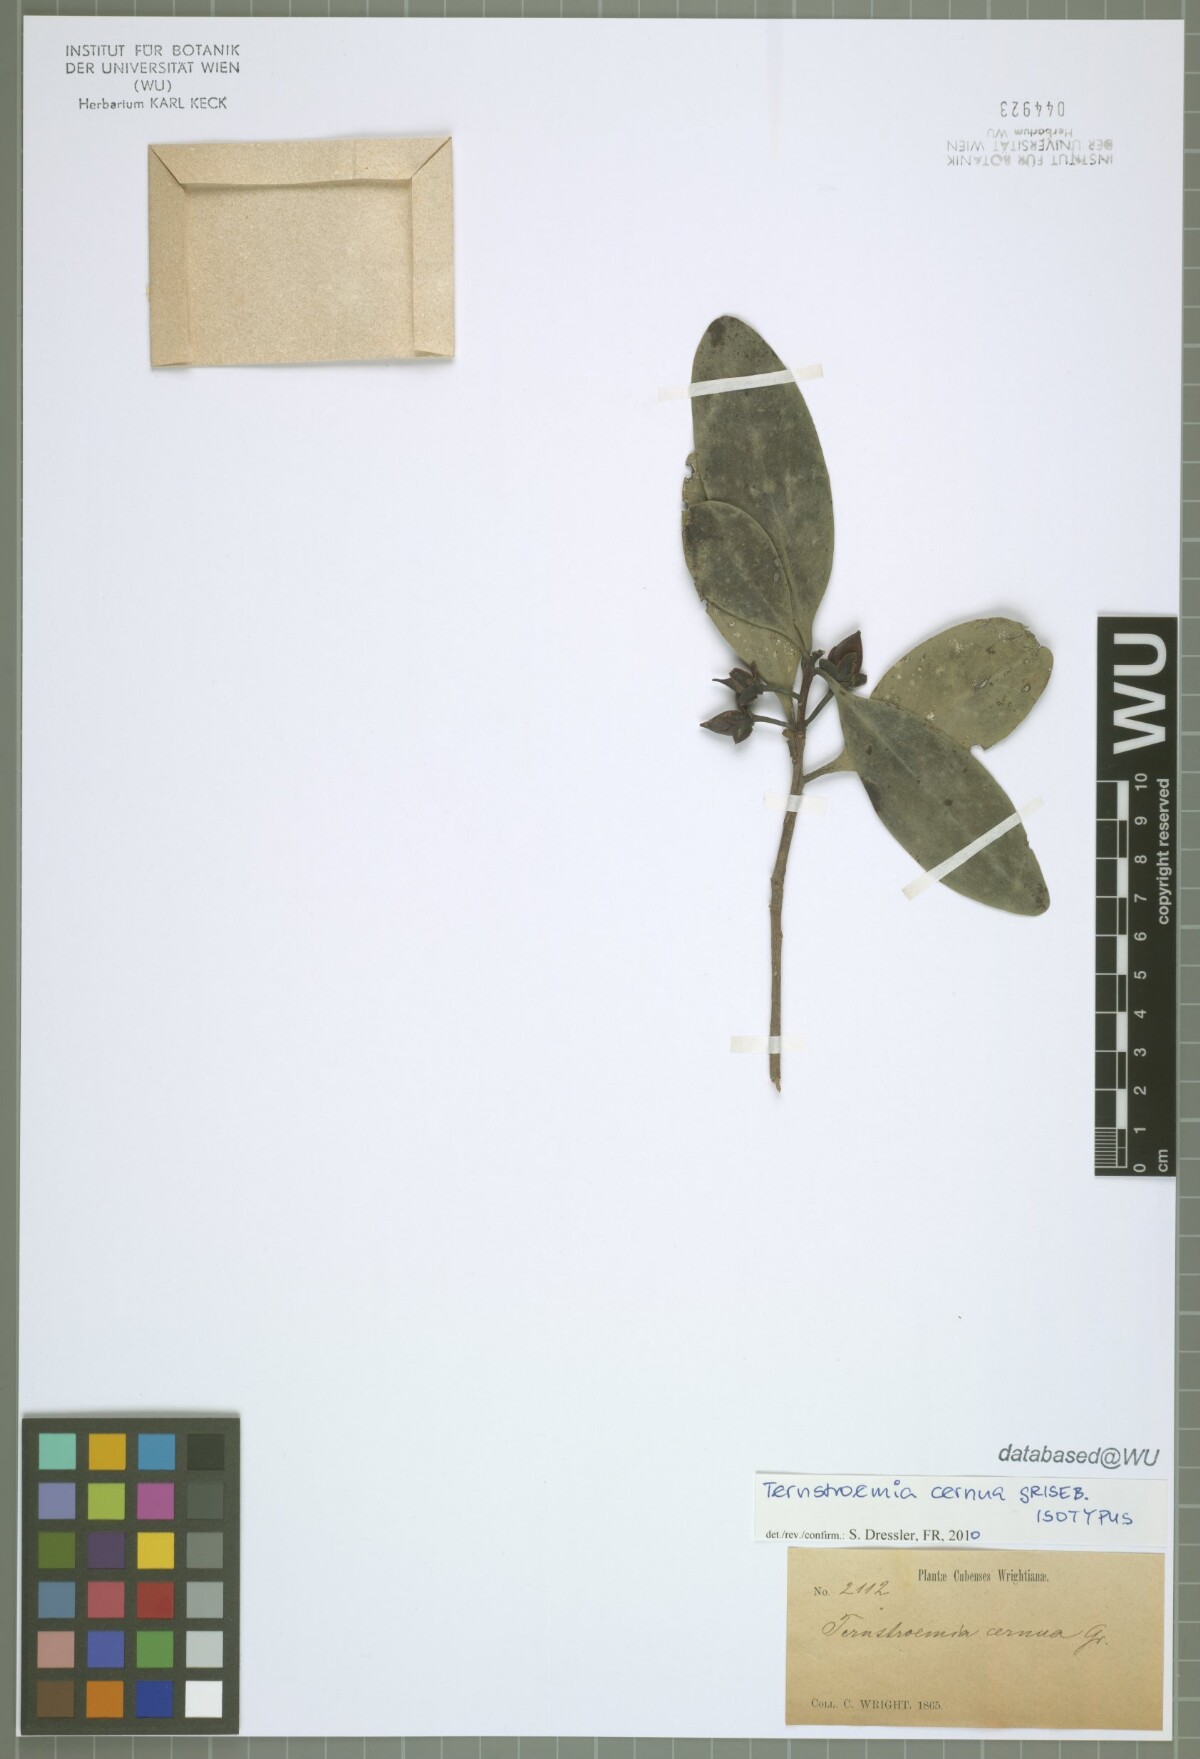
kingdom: Plantae
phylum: Tracheophyta
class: Magnoliopsida
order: Ericales
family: Pentaphylacaceae
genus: Ternstroemia
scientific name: Ternstroemia cernua
